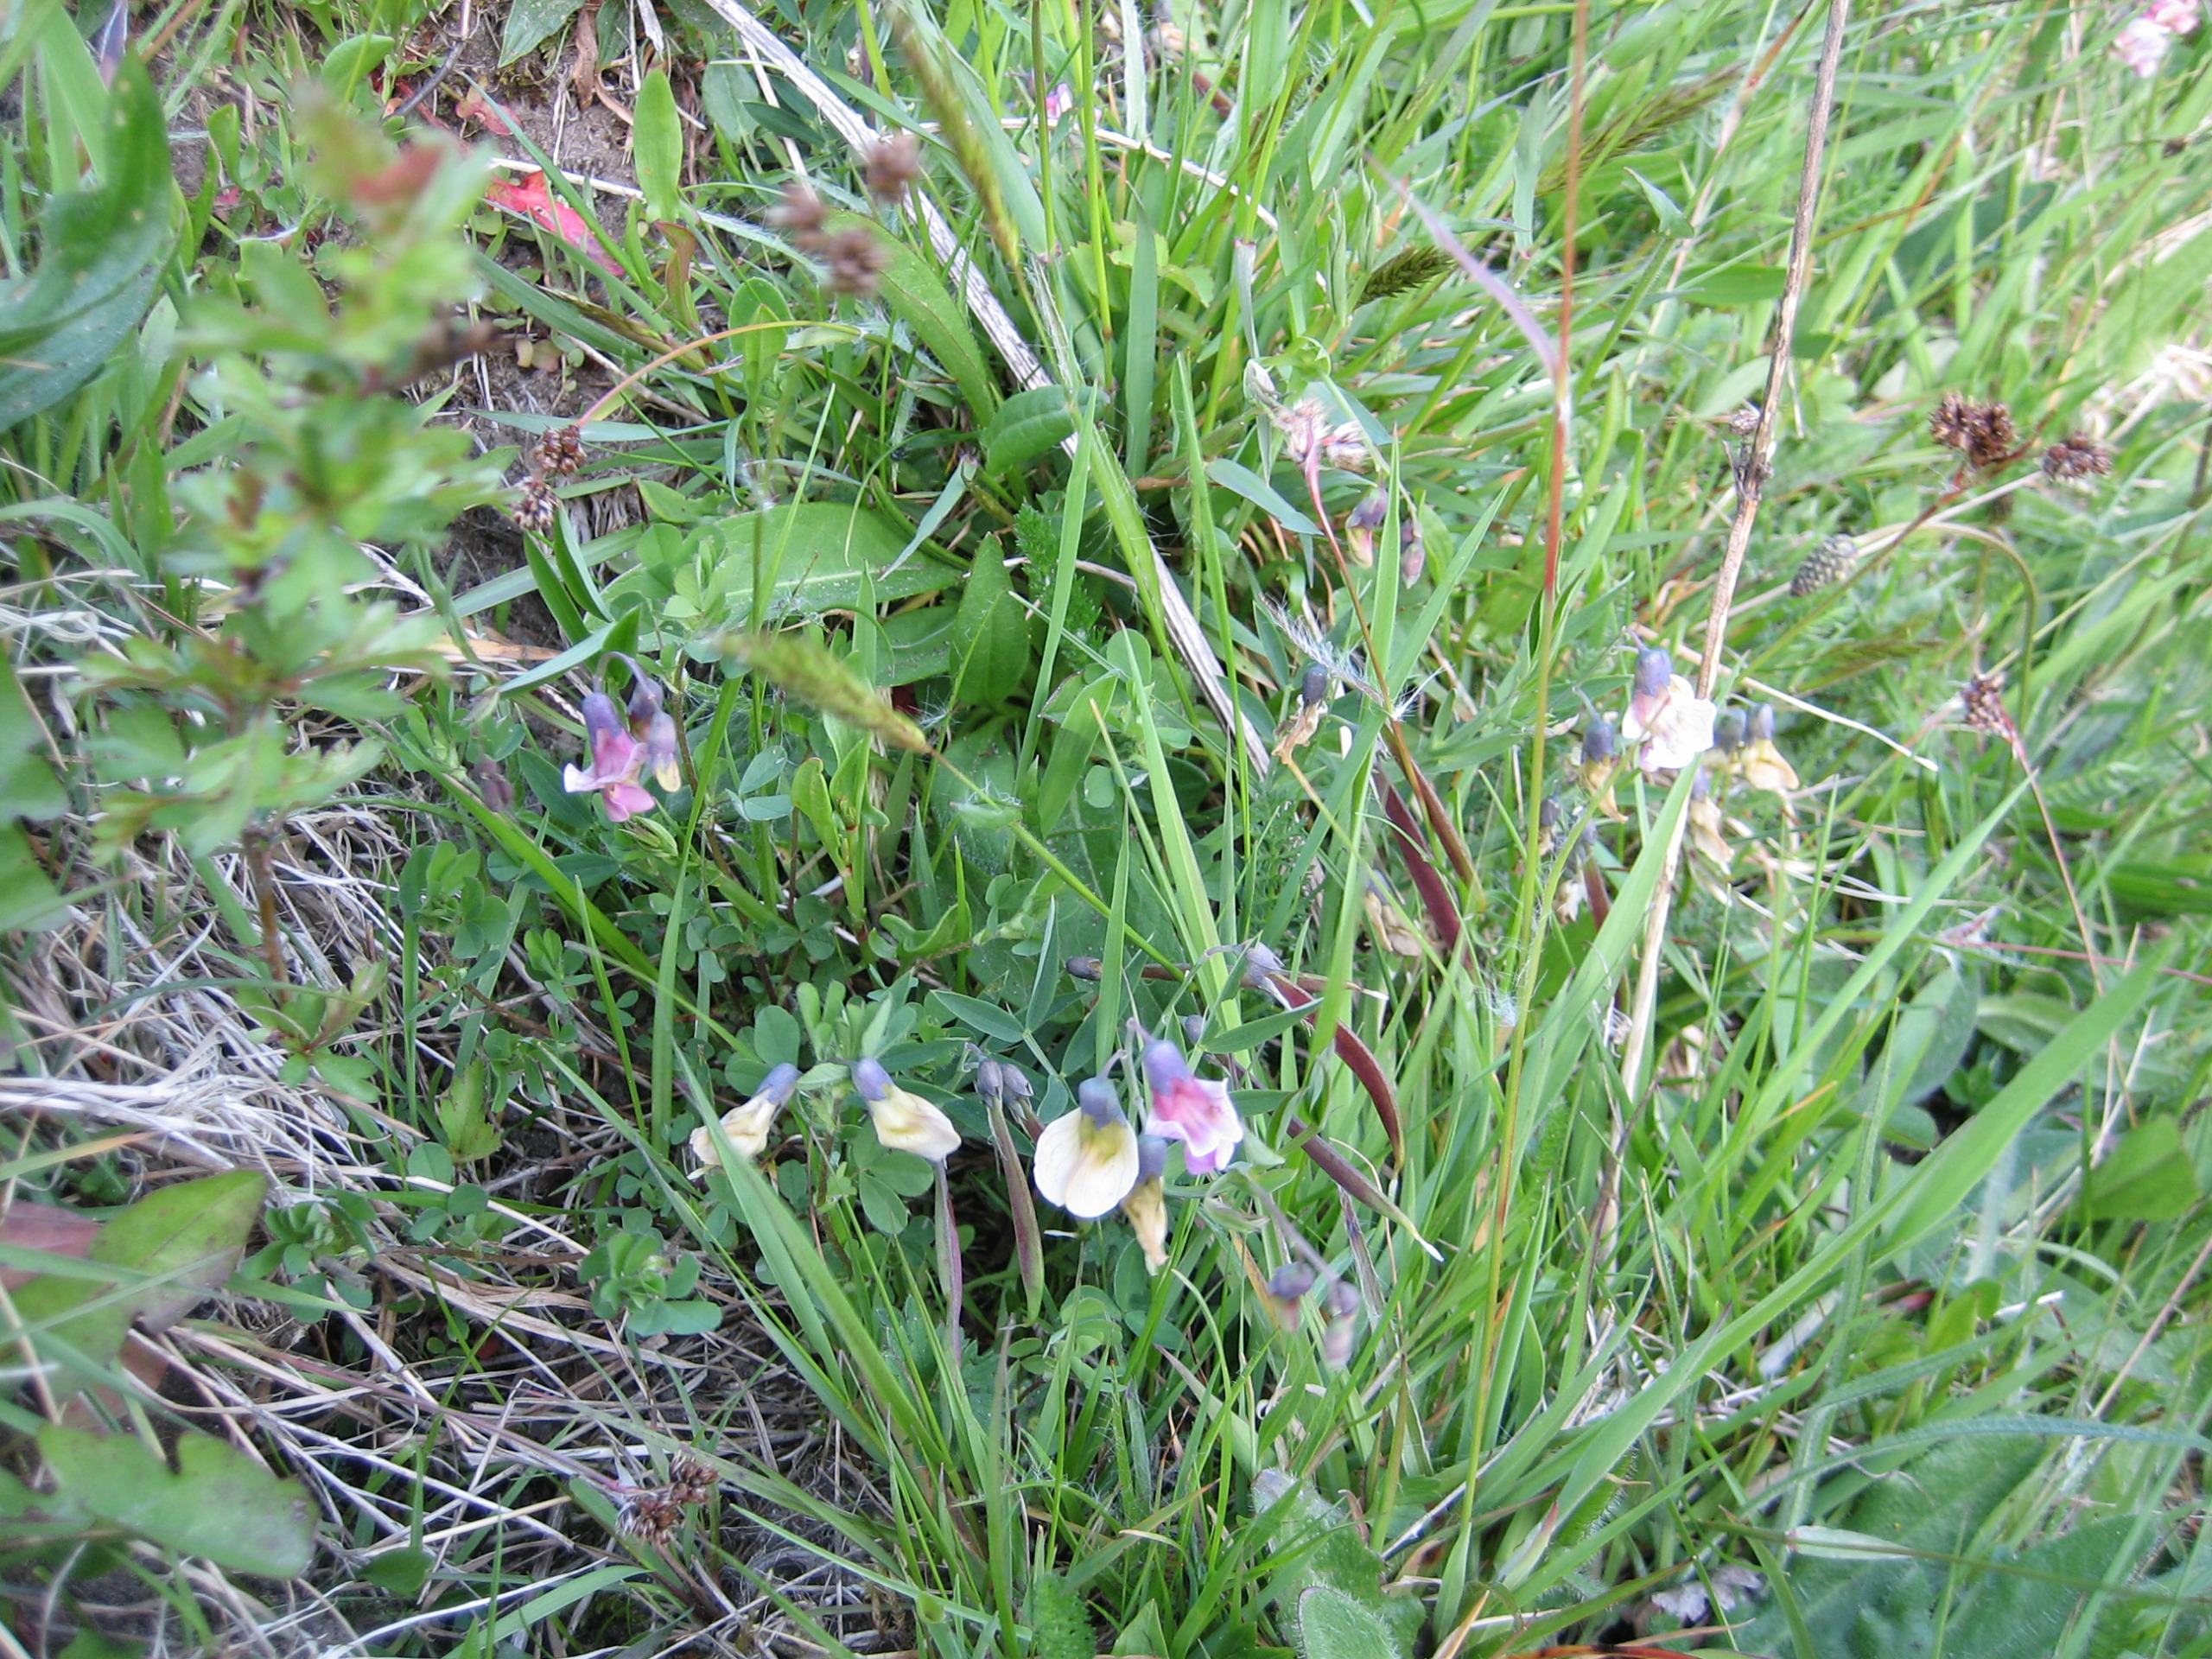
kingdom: Plantae
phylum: Tracheophyta
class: Magnoliopsida
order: Fabales
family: Fabaceae
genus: Lathyrus
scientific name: Lathyrus linifolius
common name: Krat-fladbælg
